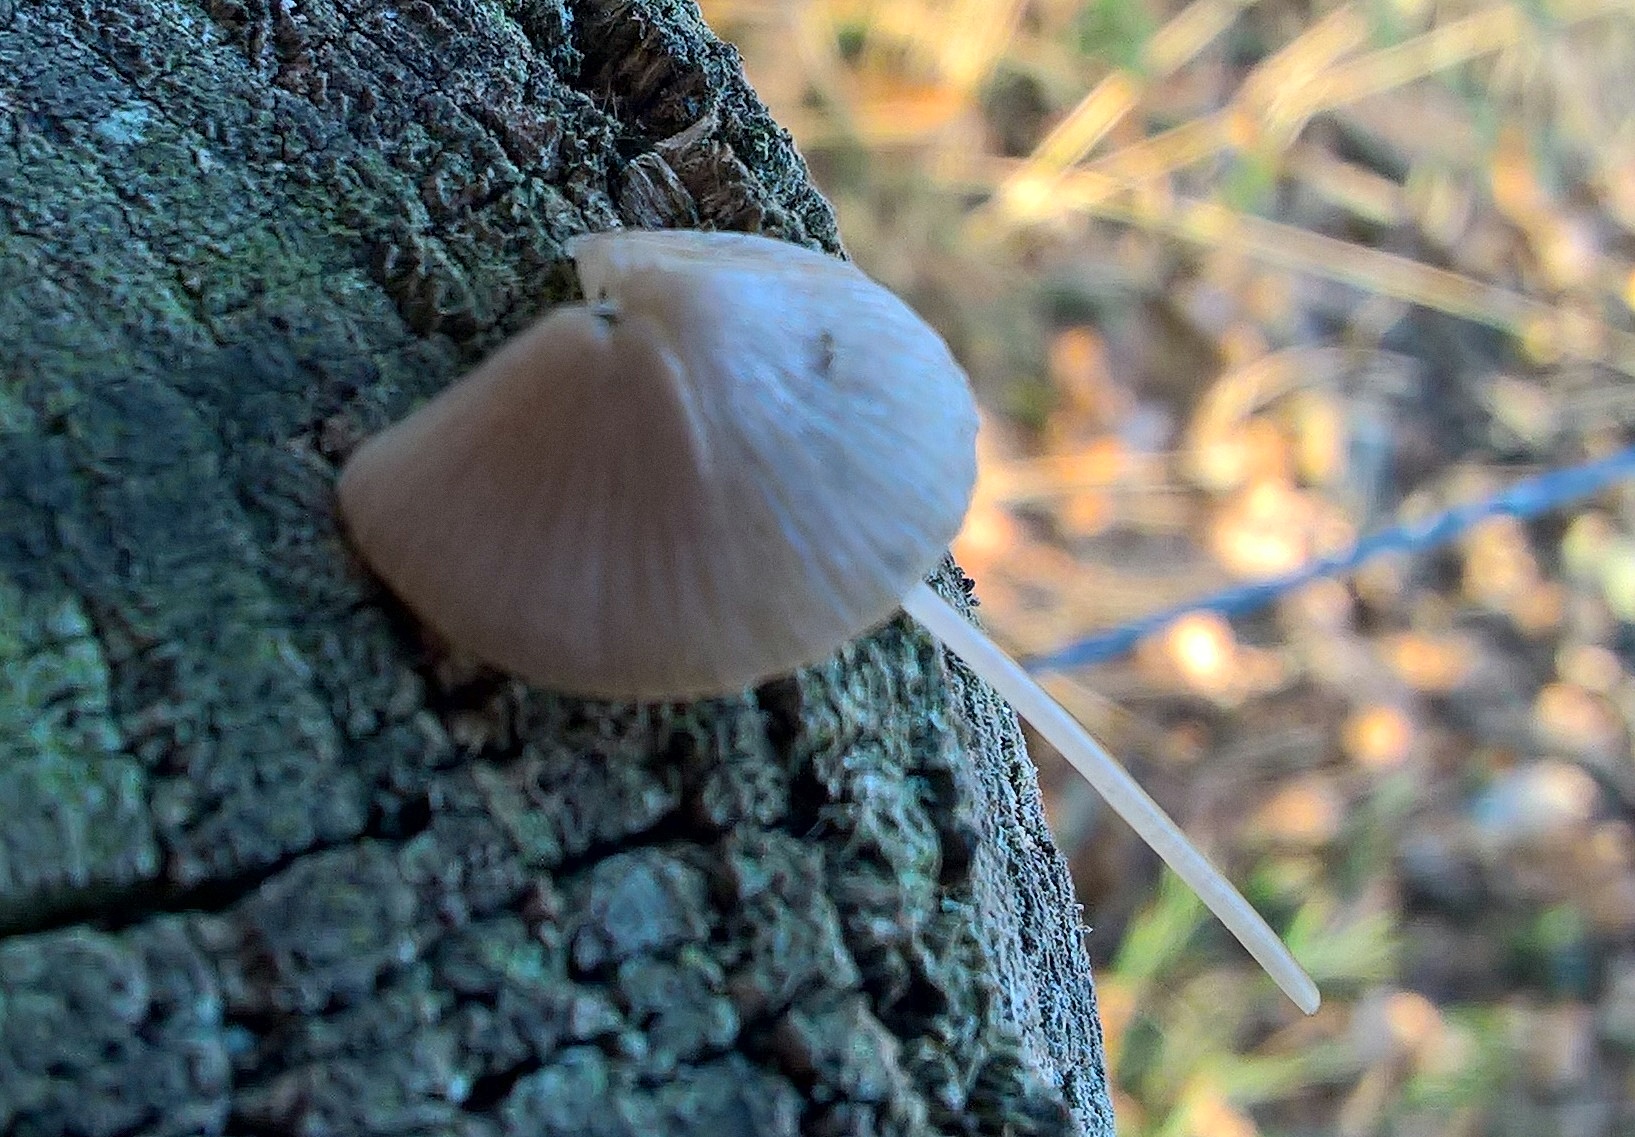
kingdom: Fungi
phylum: Basidiomycota
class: Agaricomycetes
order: Agaricales
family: Mycenaceae
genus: Mycena
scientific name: Mycena
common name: huesvamp
